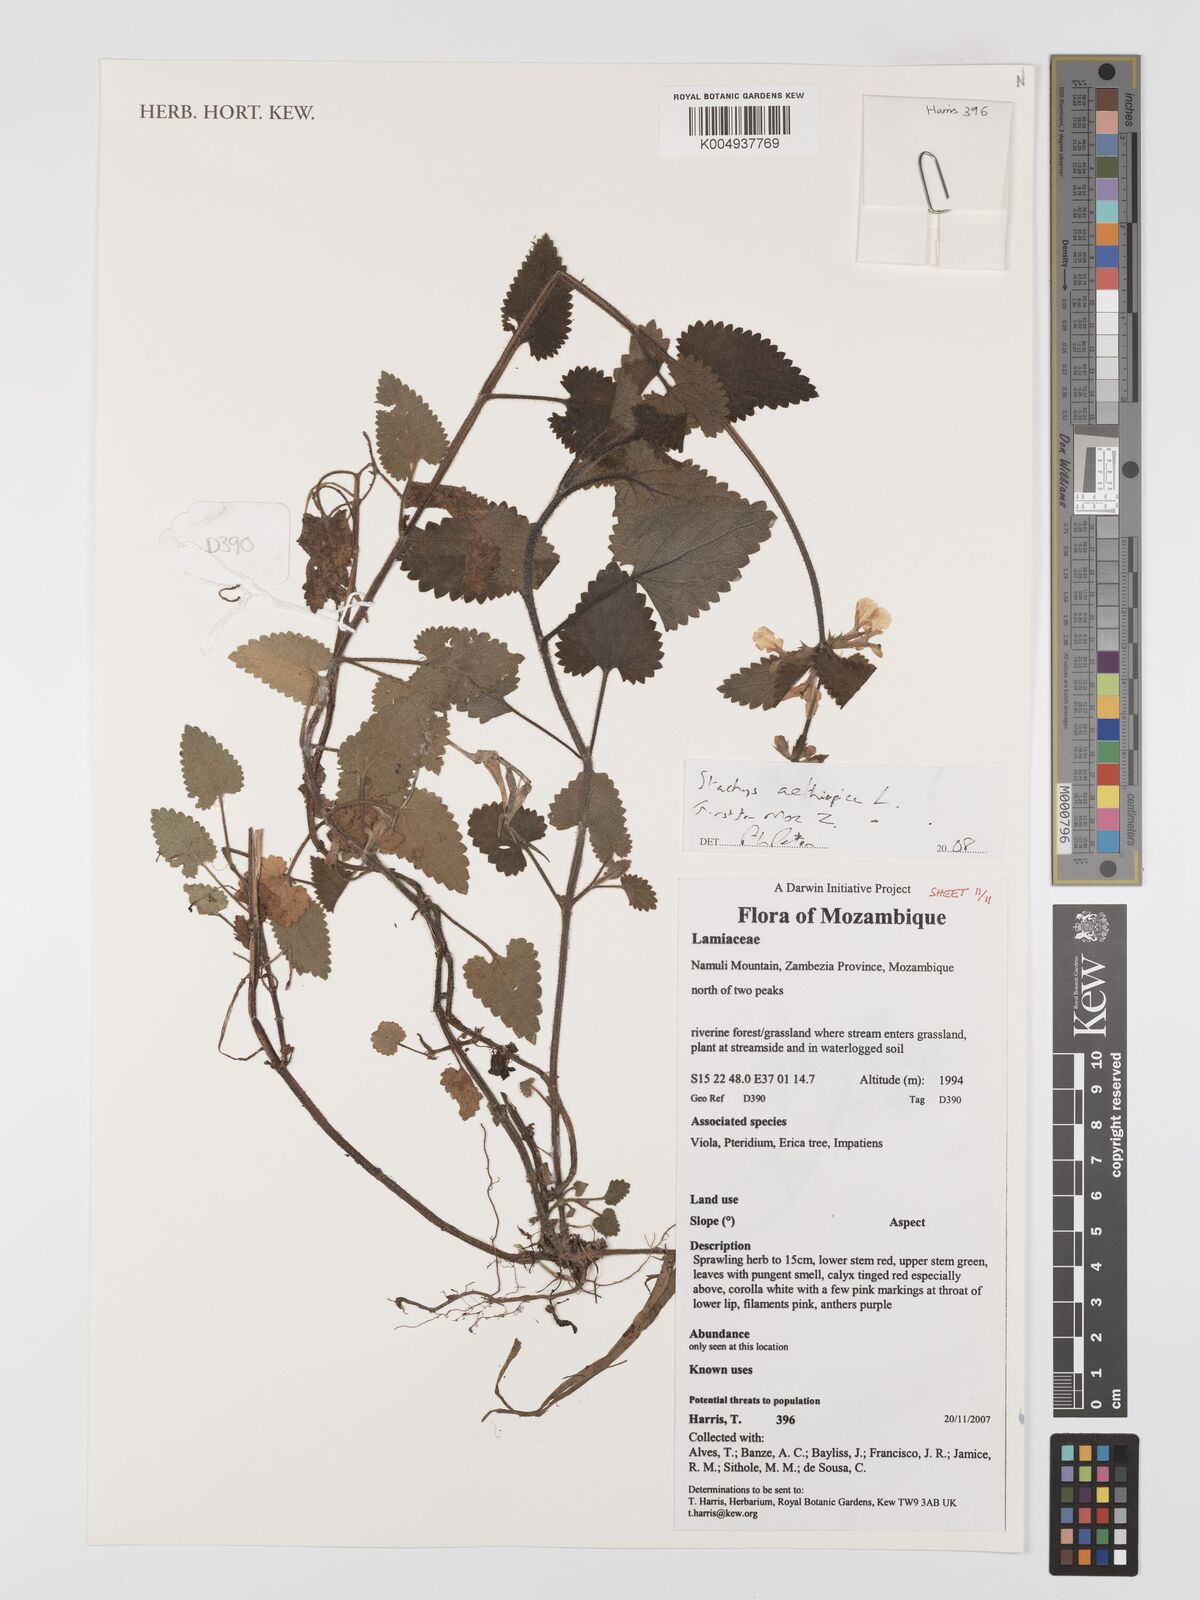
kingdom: Plantae
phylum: Tracheophyta
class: Magnoliopsida
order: Lamiales
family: Lamiaceae
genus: Stachys
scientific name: Stachys aethiopica
